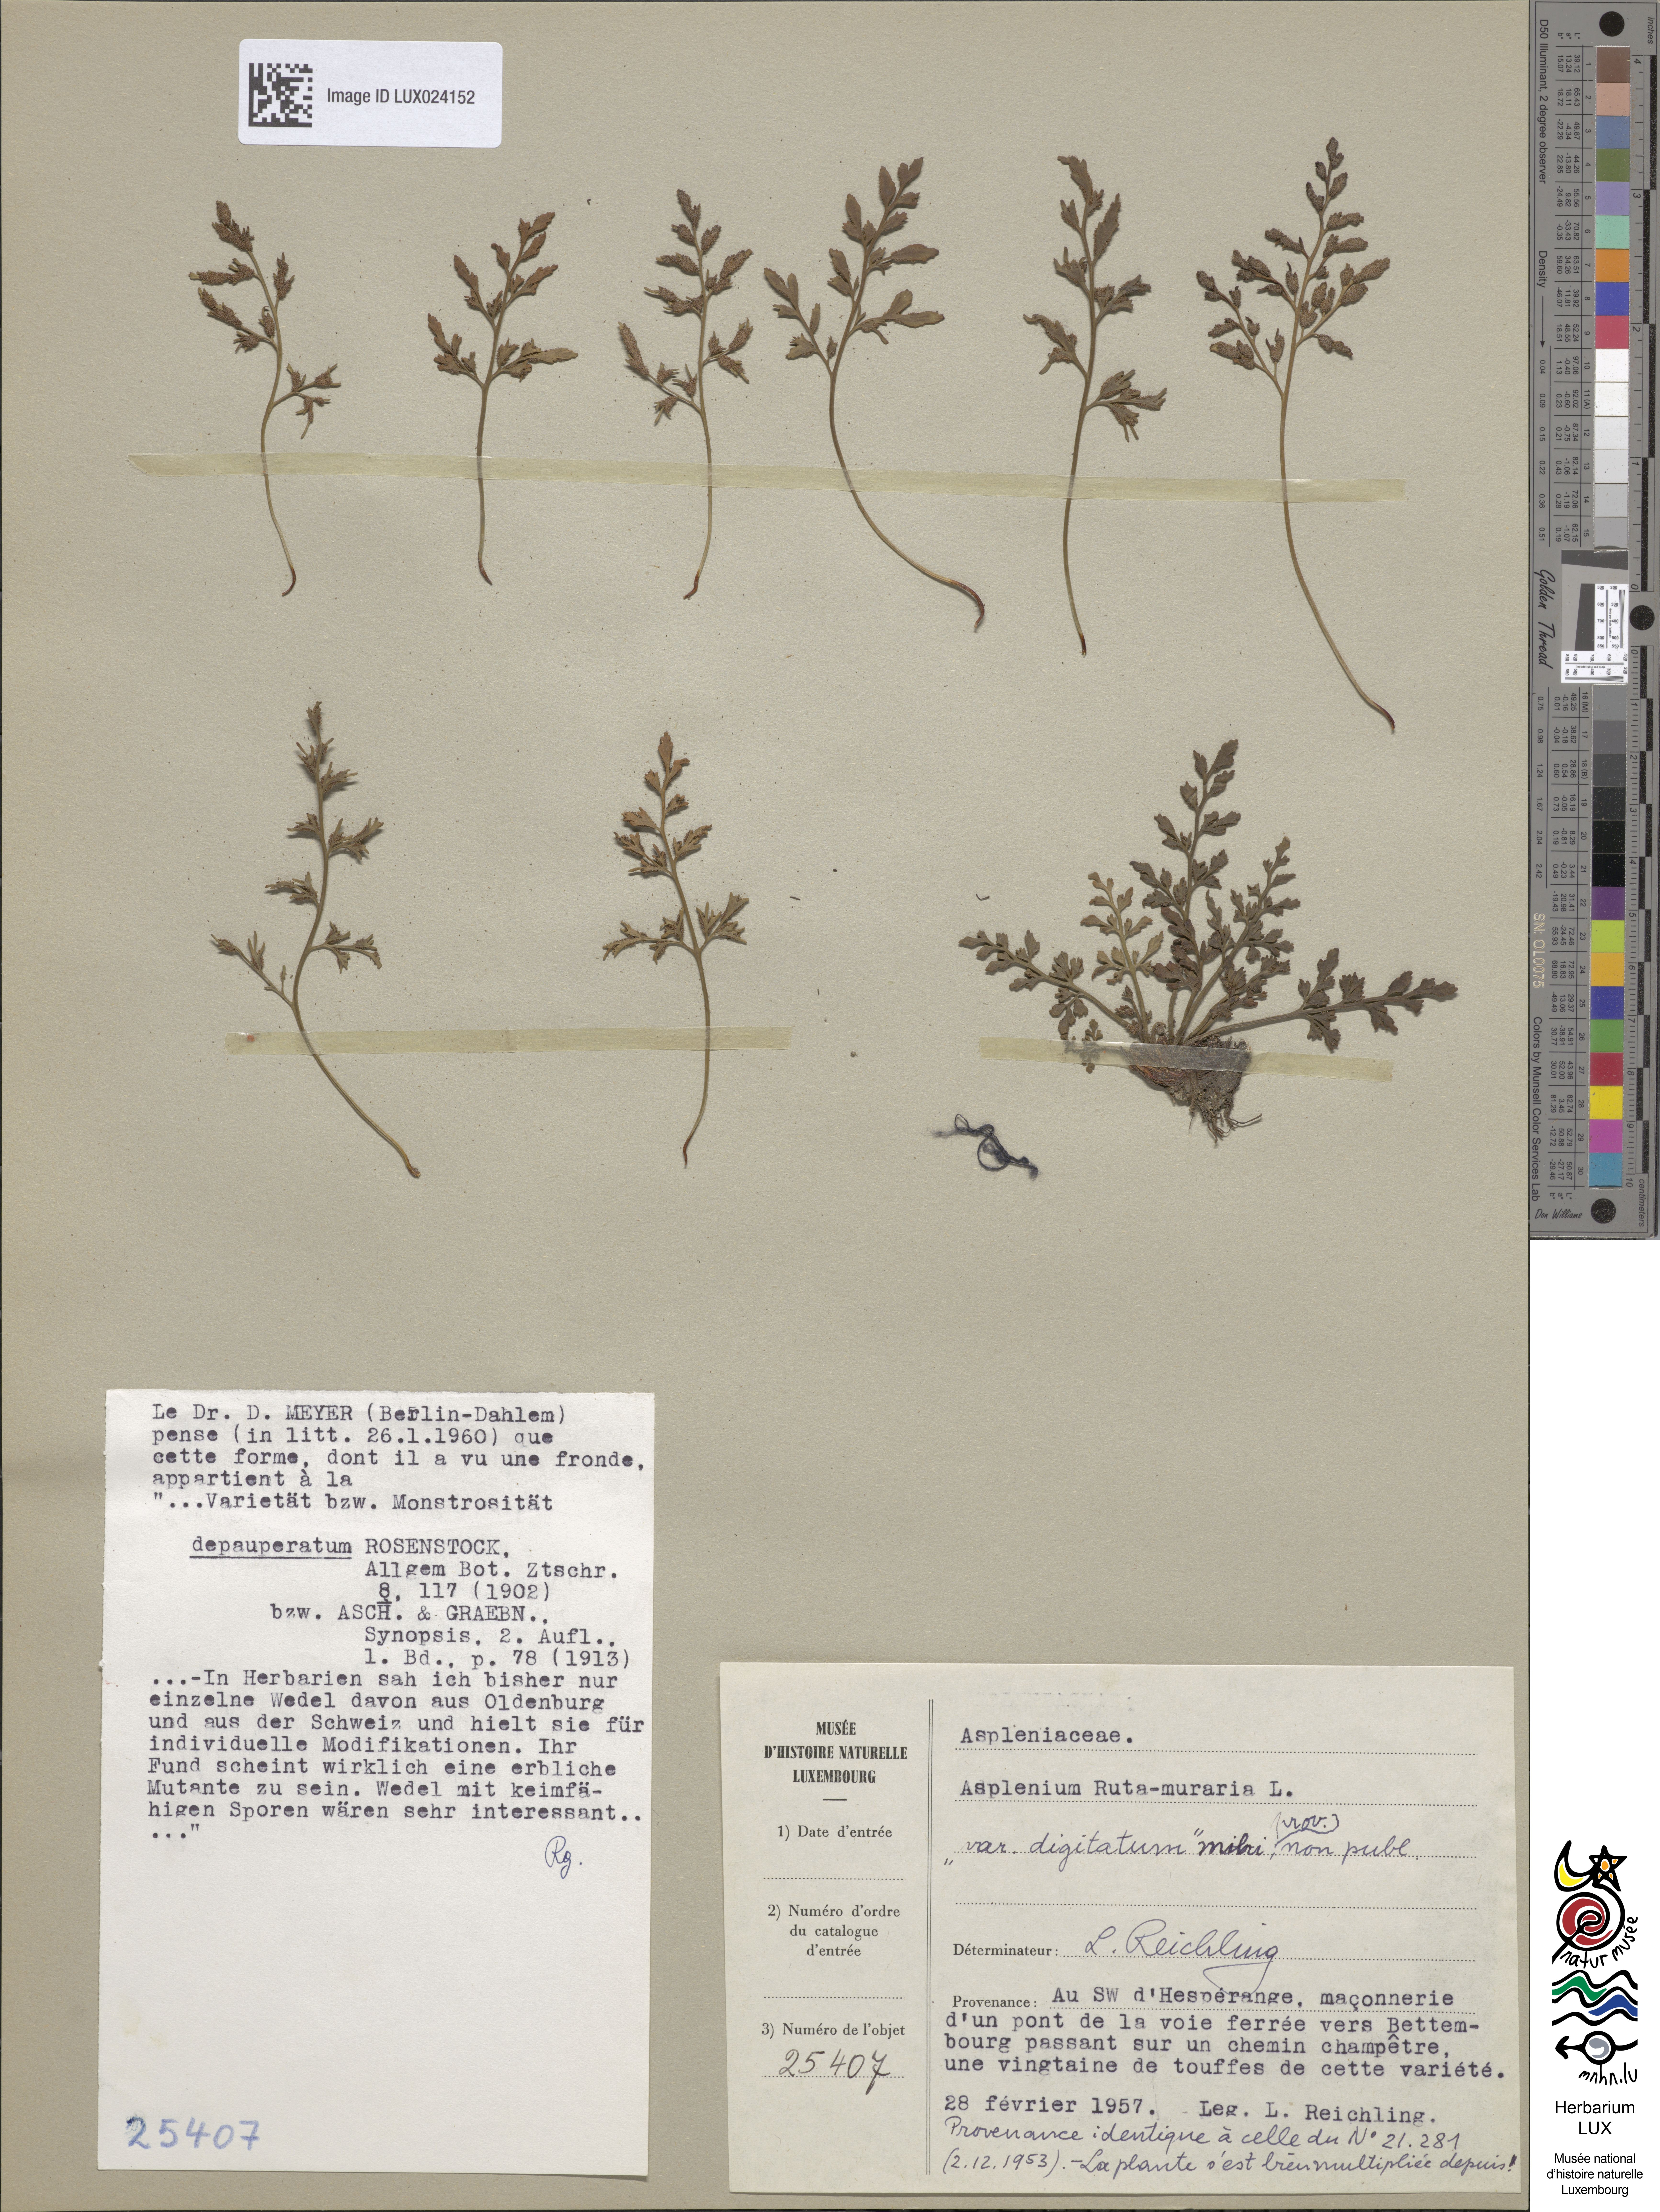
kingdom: Plantae
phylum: Tracheophyta
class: Polypodiopsida
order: Polypodiales
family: Aspleniaceae
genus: Asplenium
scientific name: Asplenium ruta-muraria
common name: Wall-rue
